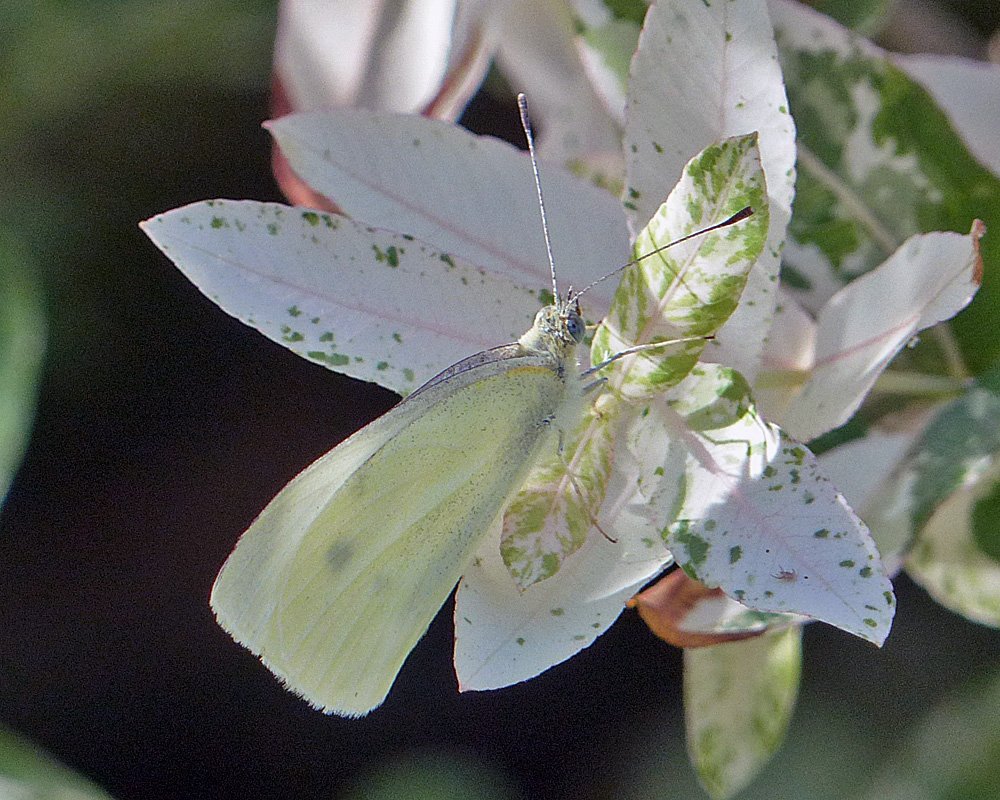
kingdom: Animalia
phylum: Arthropoda
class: Insecta
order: Lepidoptera
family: Pieridae
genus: Pieris
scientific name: Pieris rapae
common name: Cabbage White
